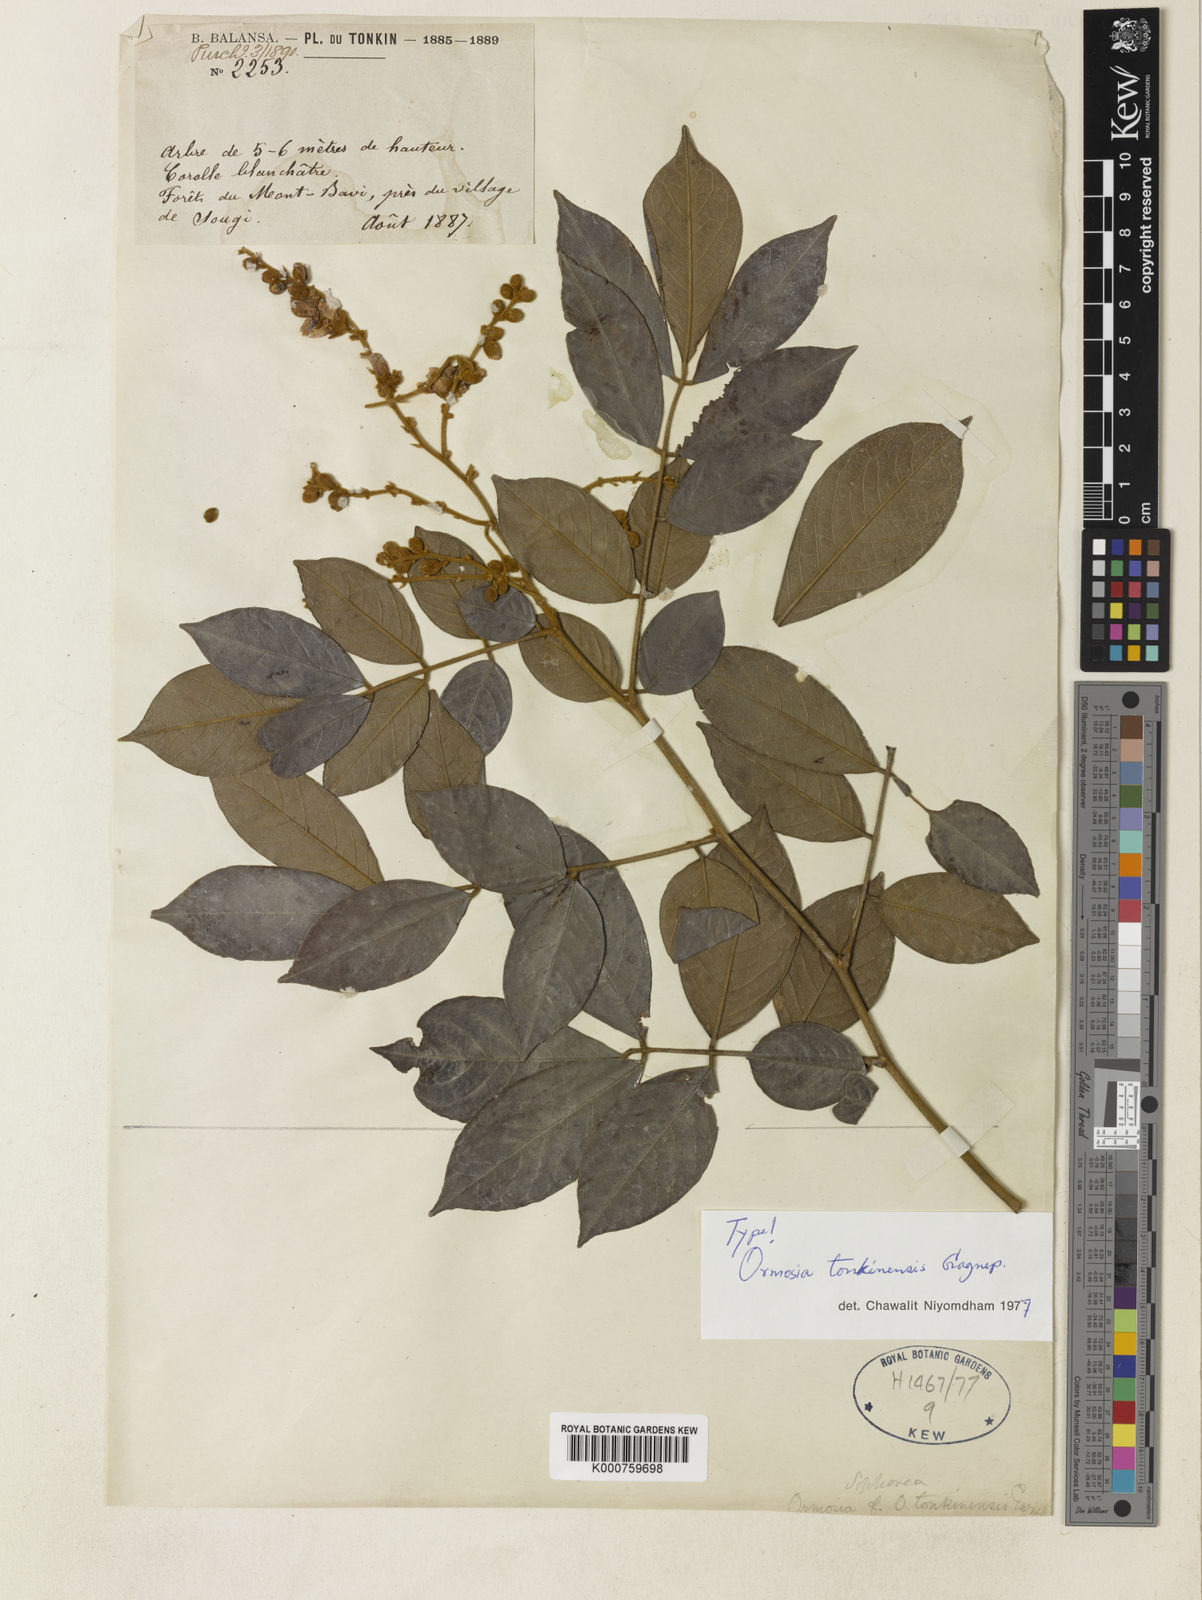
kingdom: Plantae
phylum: Tracheophyta
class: Magnoliopsida
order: Fabales
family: Fabaceae
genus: Ormosia
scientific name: Ormosia tonkinensis
